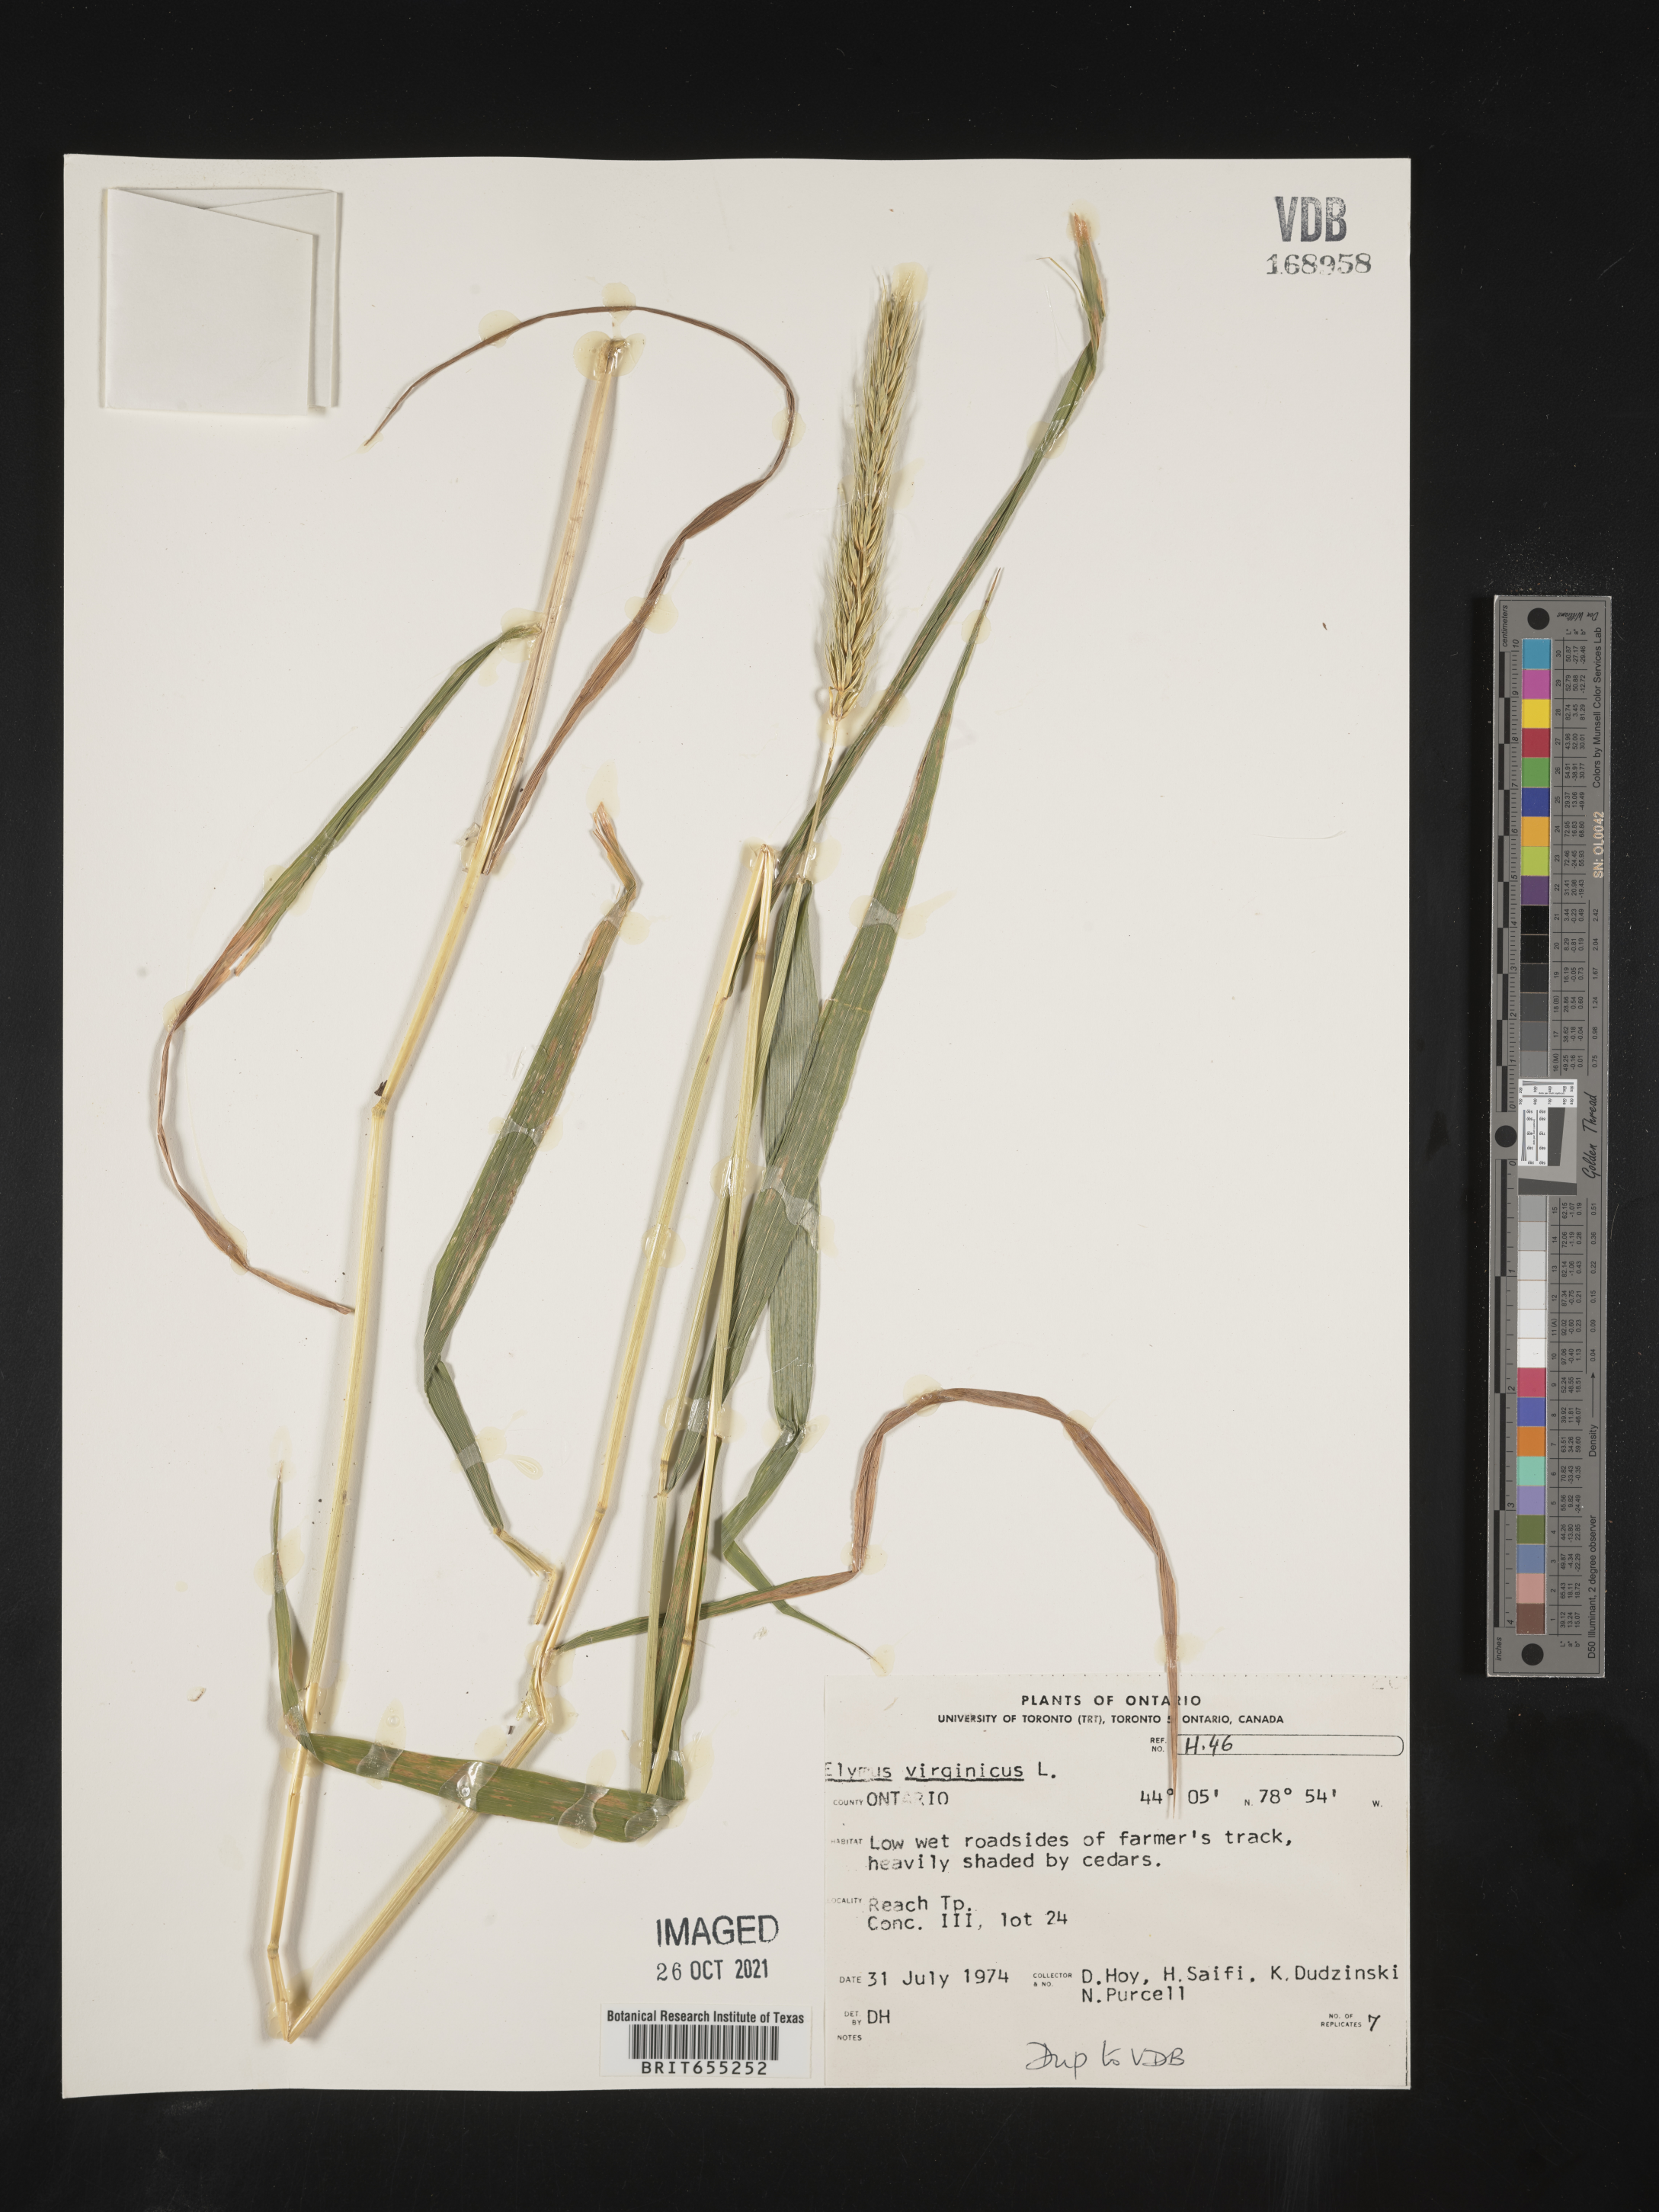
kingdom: Plantae
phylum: Tracheophyta
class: Liliopsida
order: Poales
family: Poaceae
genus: Elymus
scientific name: Elymus
